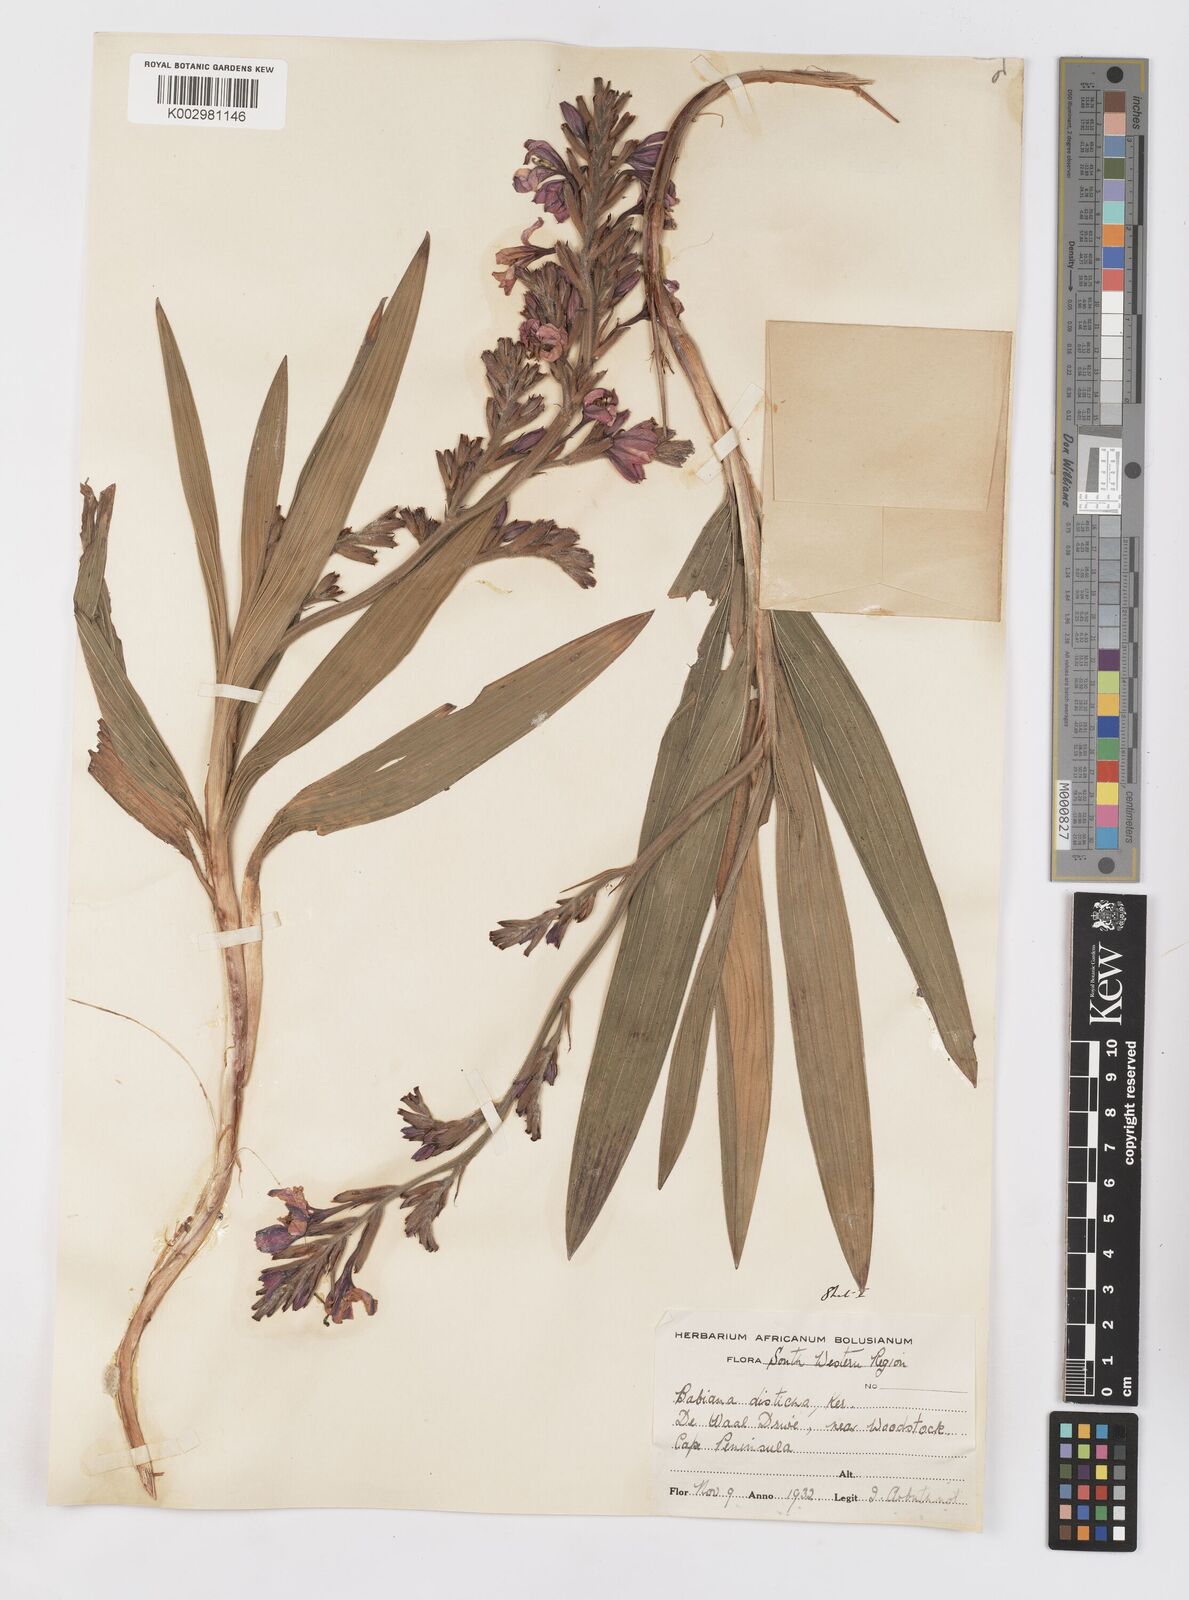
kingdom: Plantae
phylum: Tracheophyta
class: Liliopsida
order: Asparagales
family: Iridaceae
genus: Babiana
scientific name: Babiana
